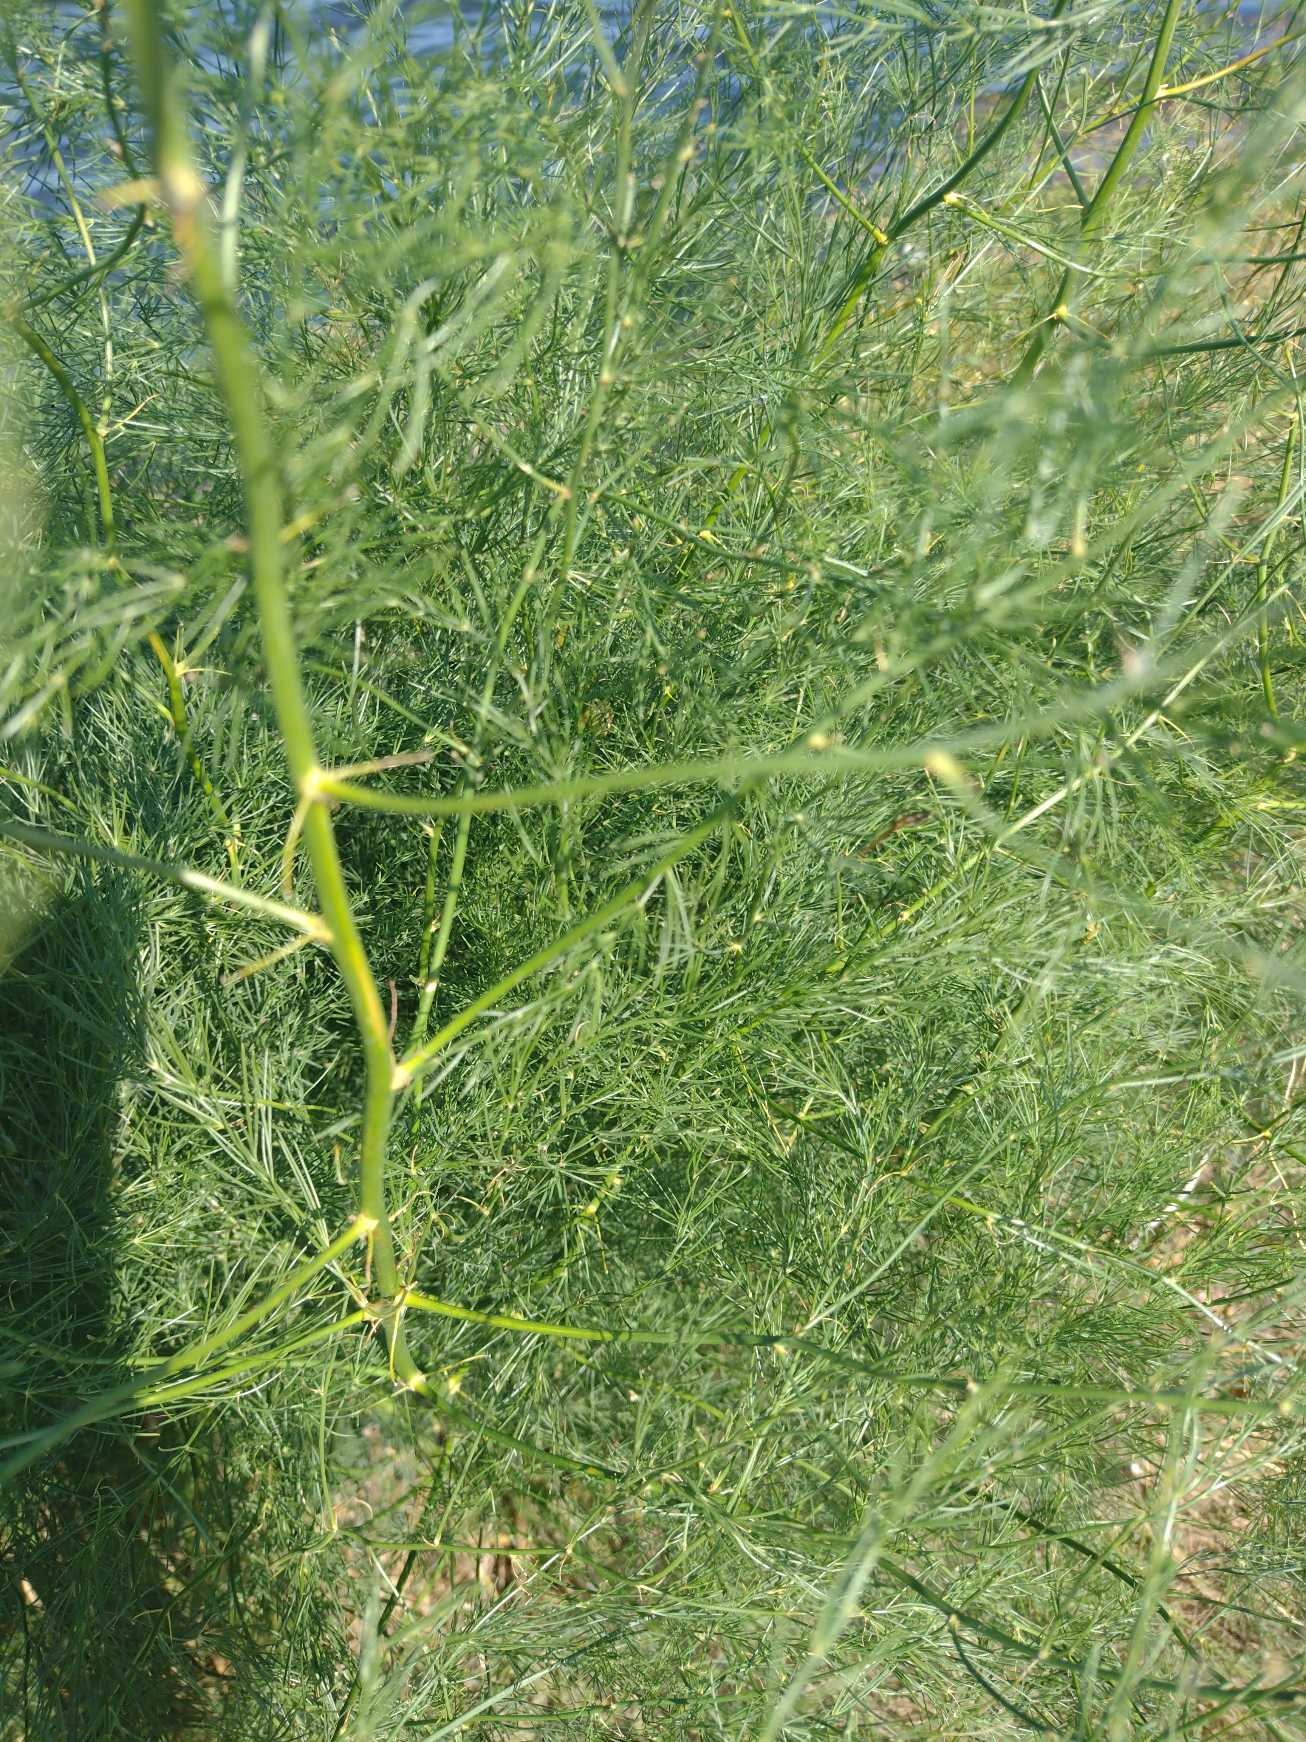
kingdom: Plantae
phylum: Tracheophyta
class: Liliopsida
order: Asparagales
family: Asparagaceae
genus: Asparagus
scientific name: Asparagus officinalis
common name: Asparges
